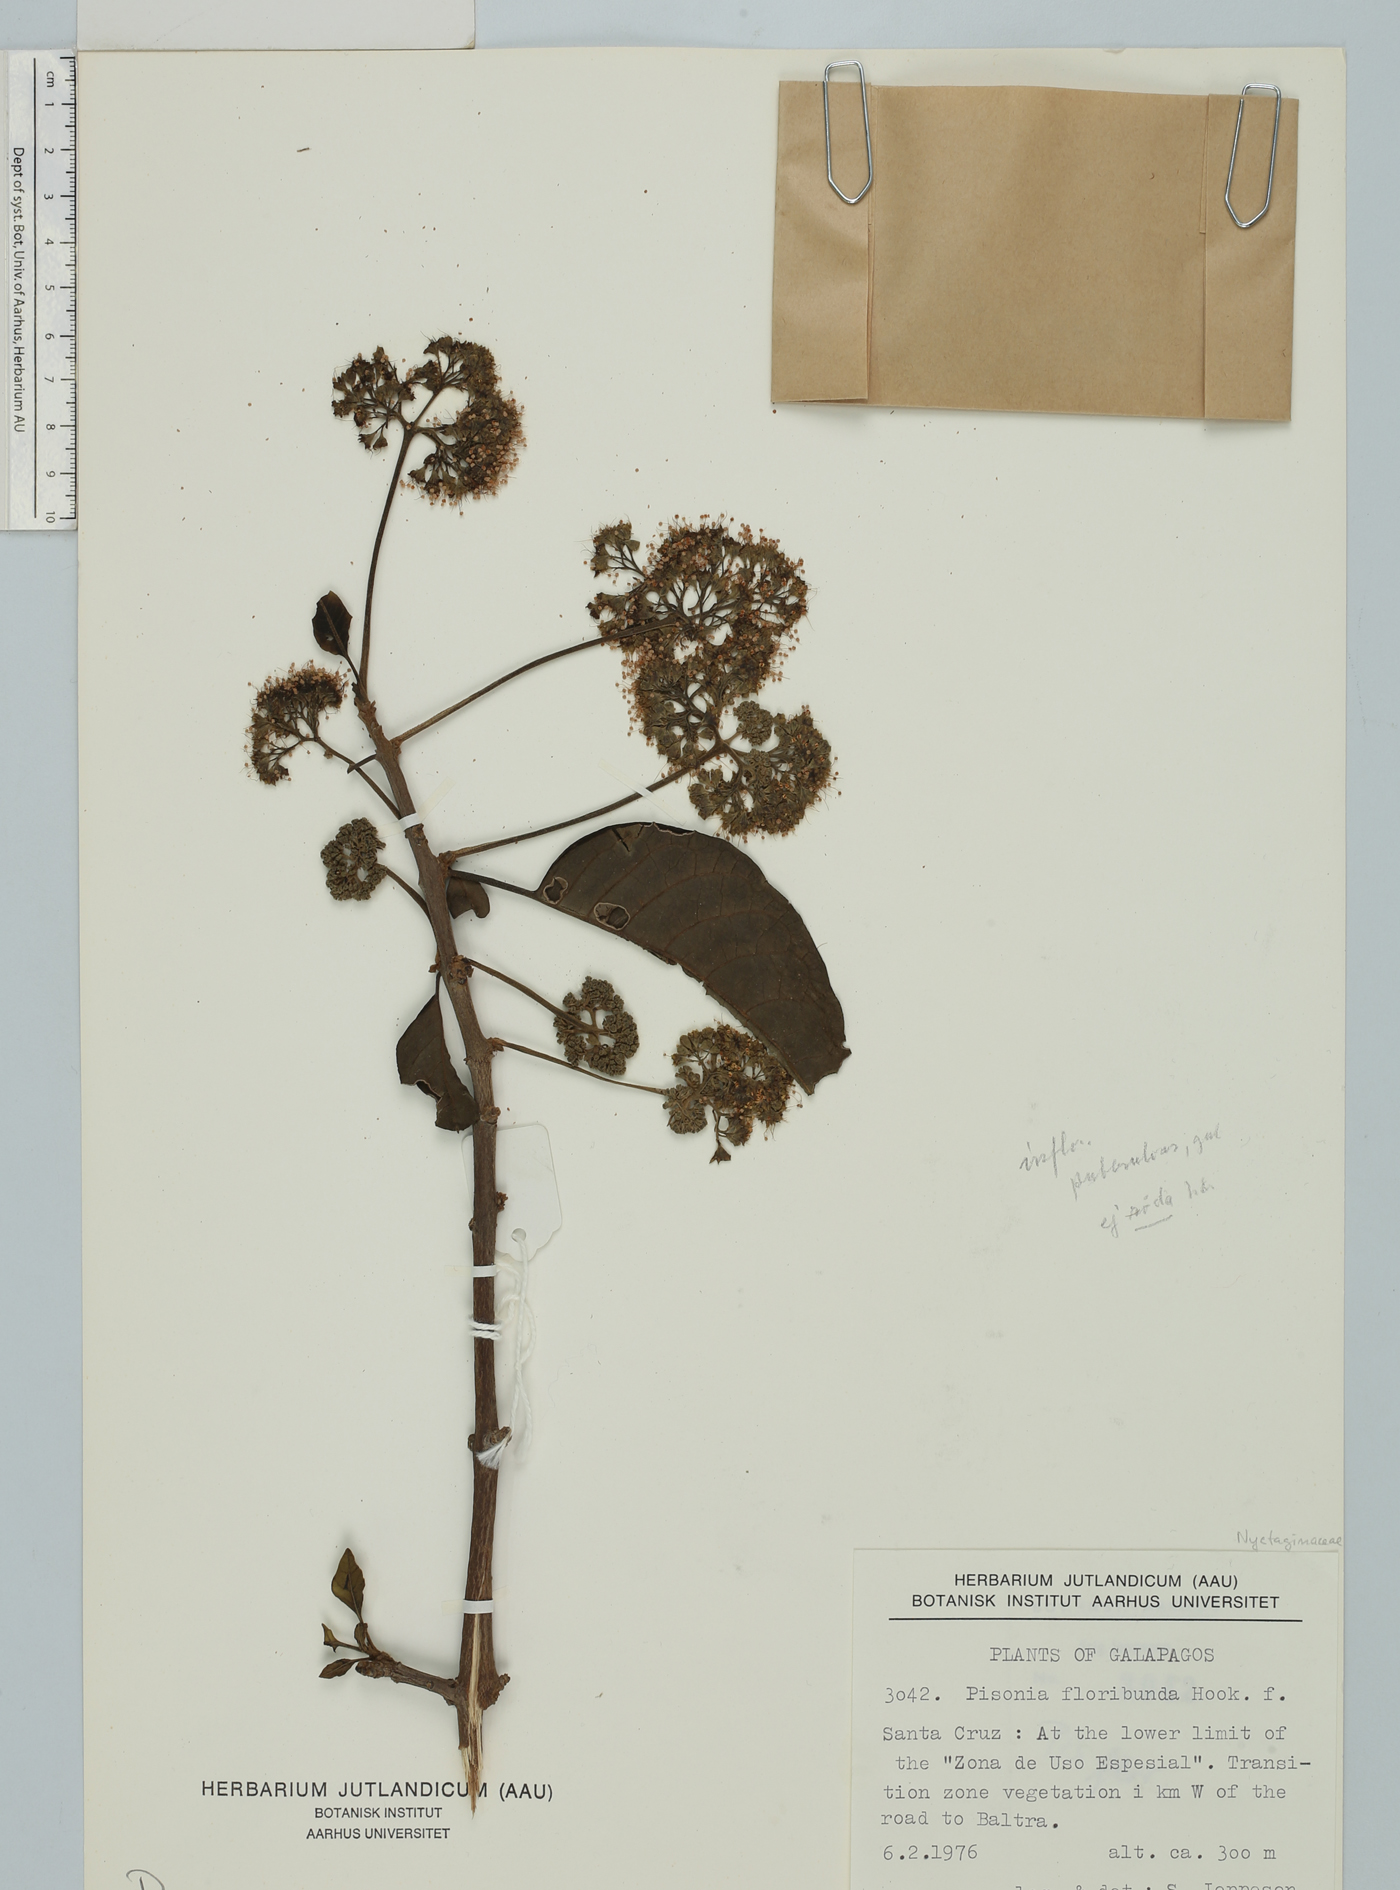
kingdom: Plantae
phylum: Tracheophyta
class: Magnoliopsida
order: Caryophyllales
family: Nyctaginaceae
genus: Guapira
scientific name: Guapira floribunda
